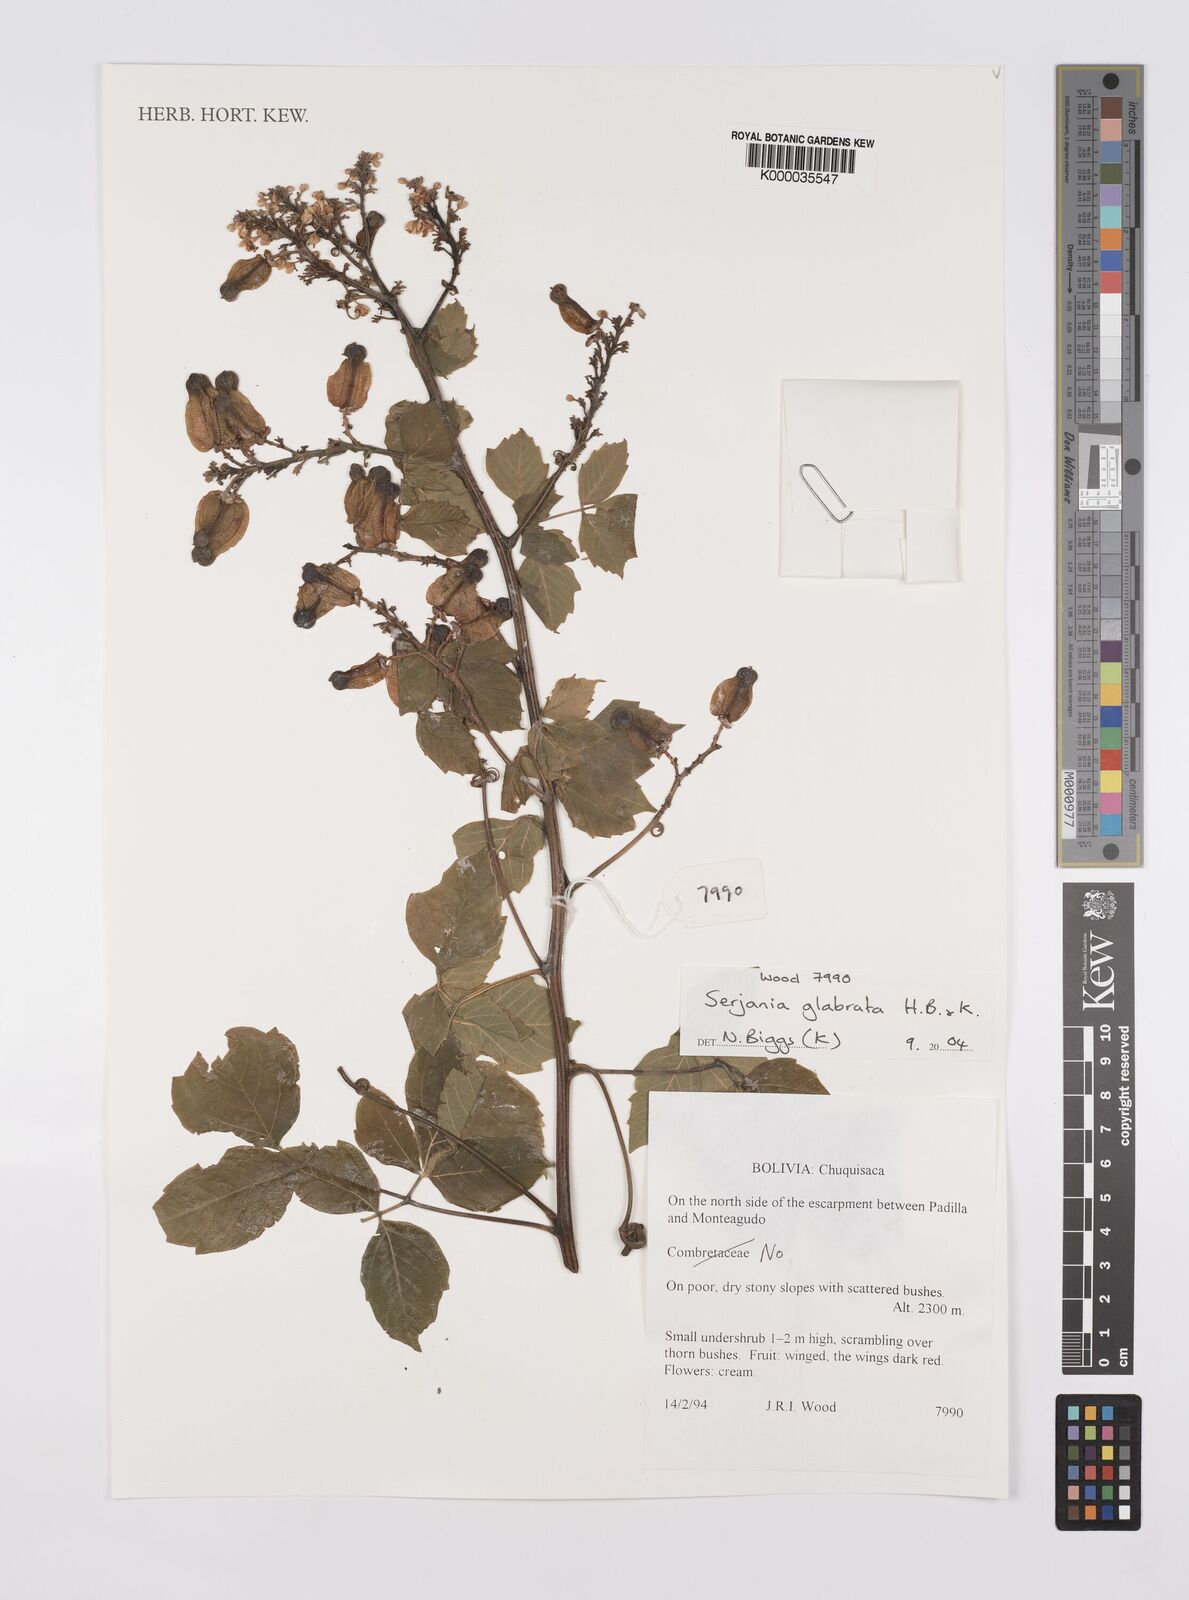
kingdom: Plantae
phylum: Tracheophyta
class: Magnoliopsida
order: Sapindales
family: Sapindaceae
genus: Serjania
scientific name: Serjania
